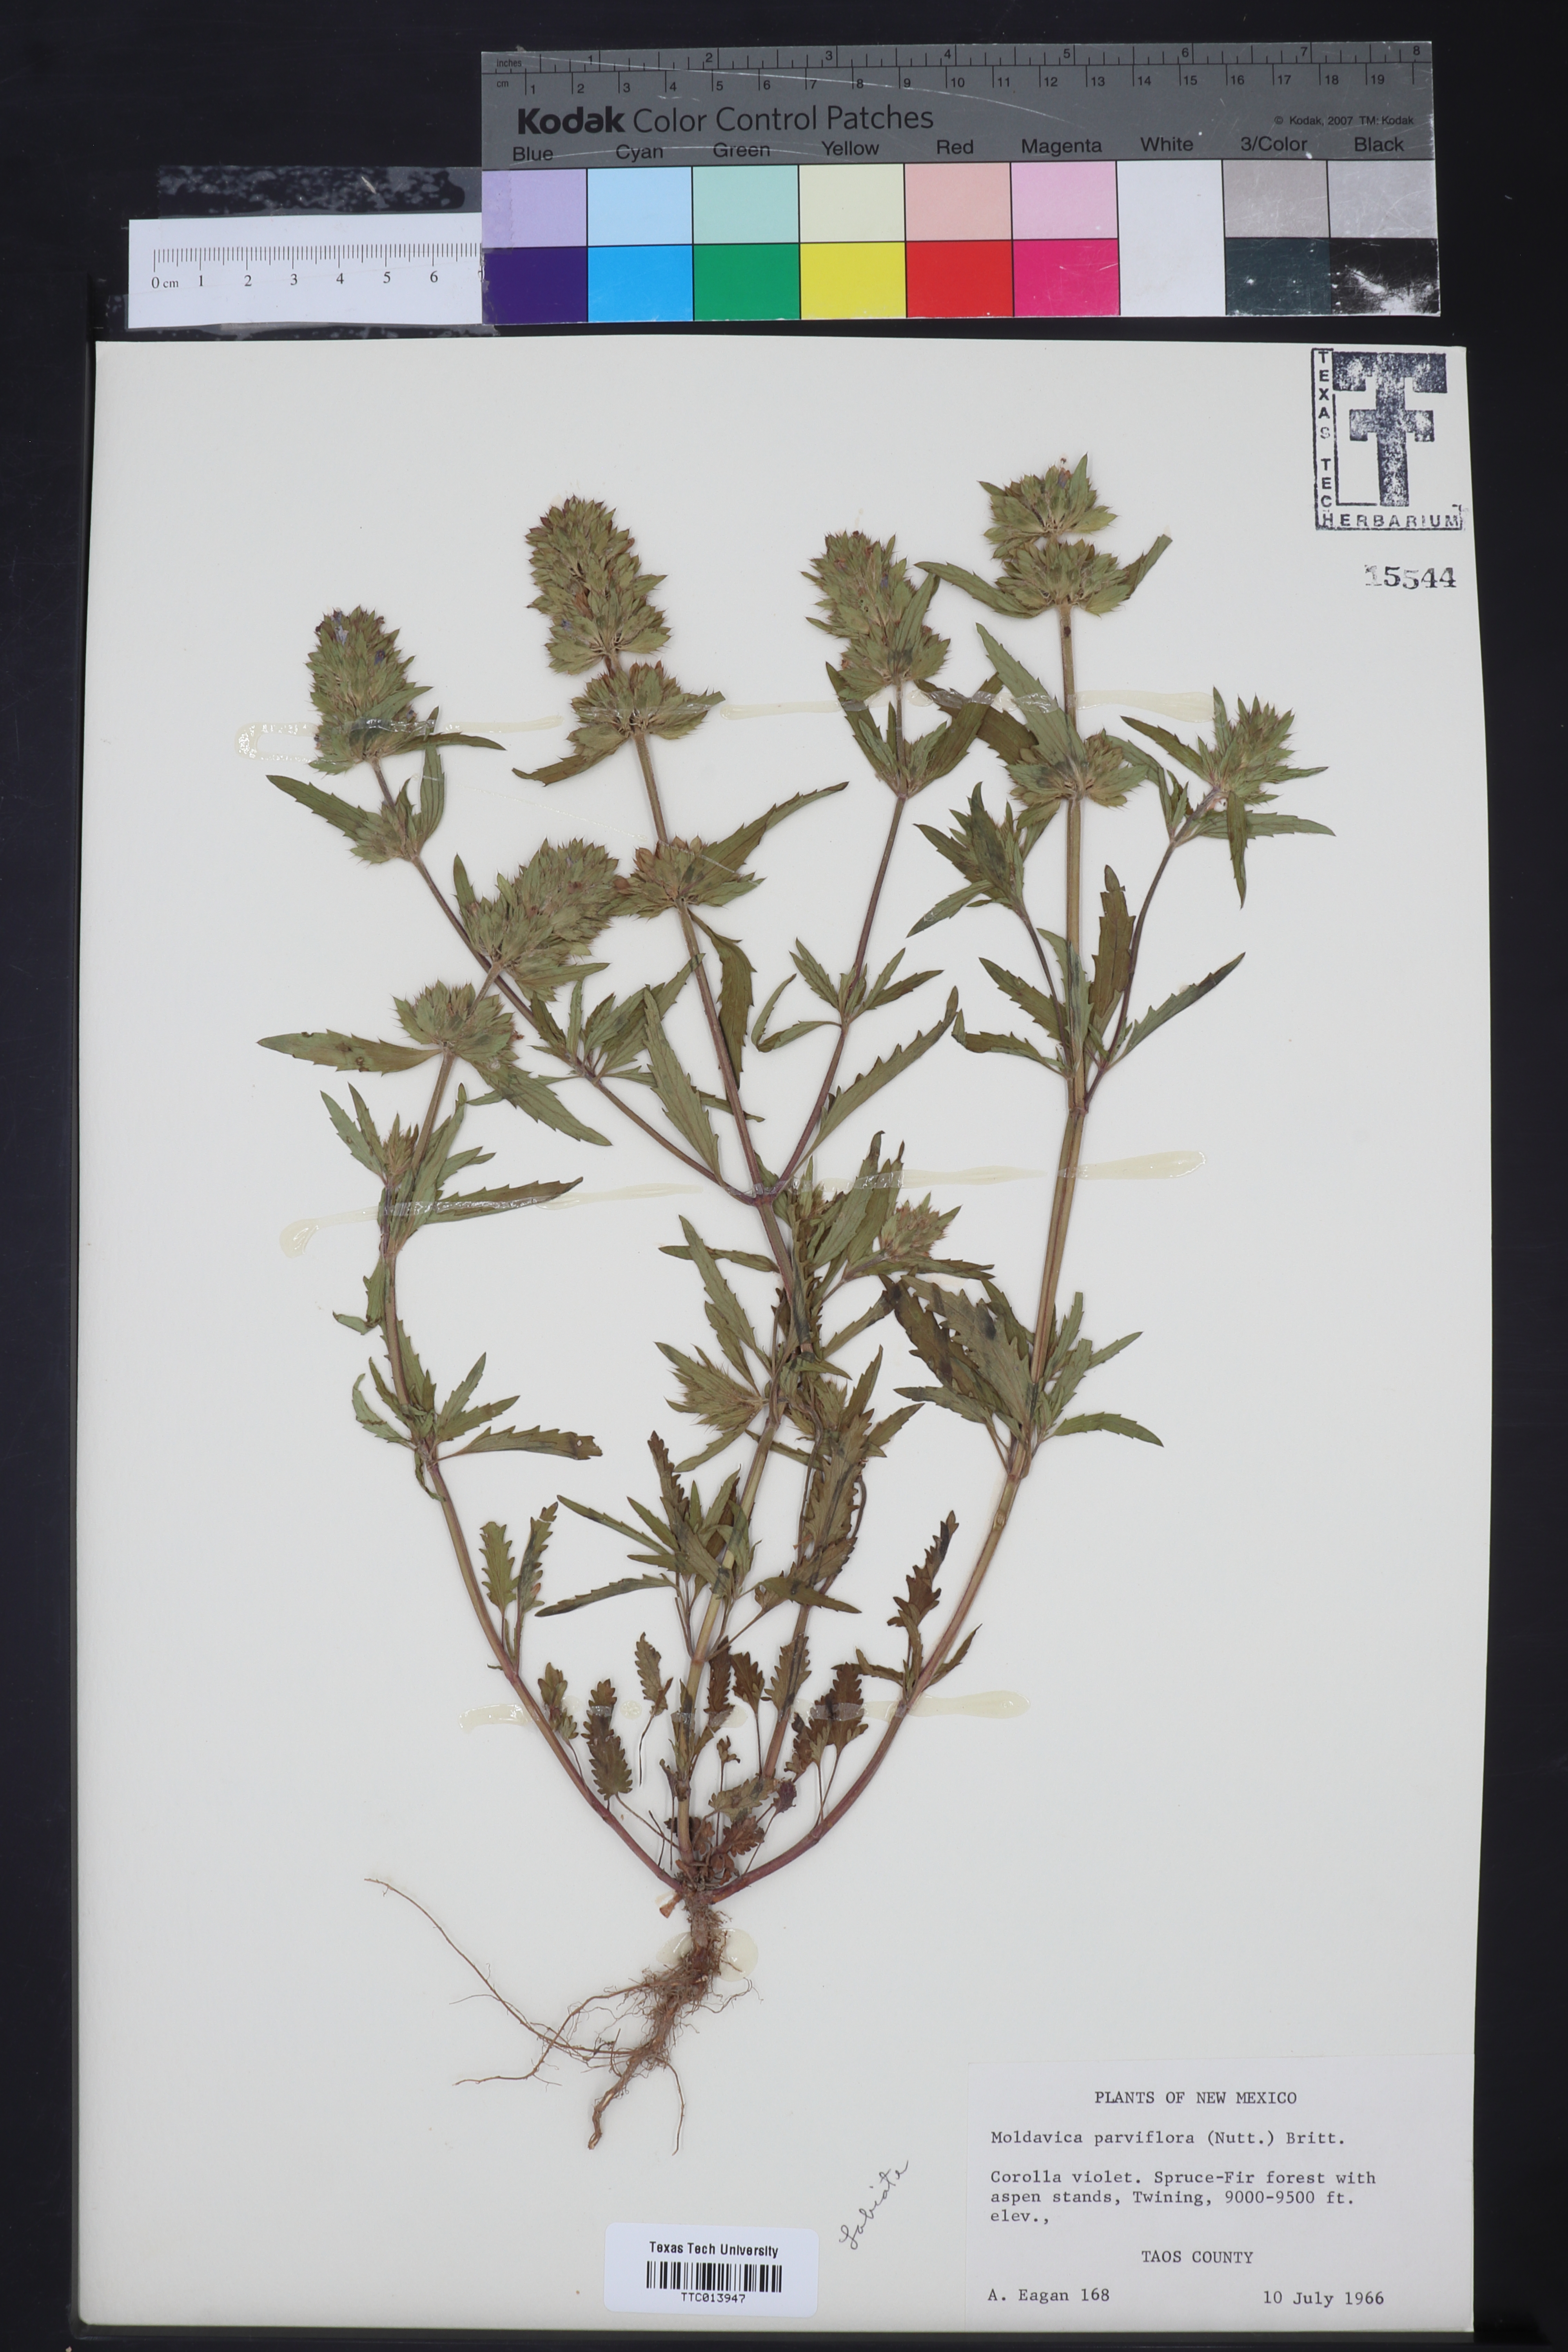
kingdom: Plantae
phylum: Tracheophyta
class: Magnoliopsida
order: Lamiales
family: Lamiaceae
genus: Physostegia
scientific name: Physostegia parviflora
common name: American dragonhead
